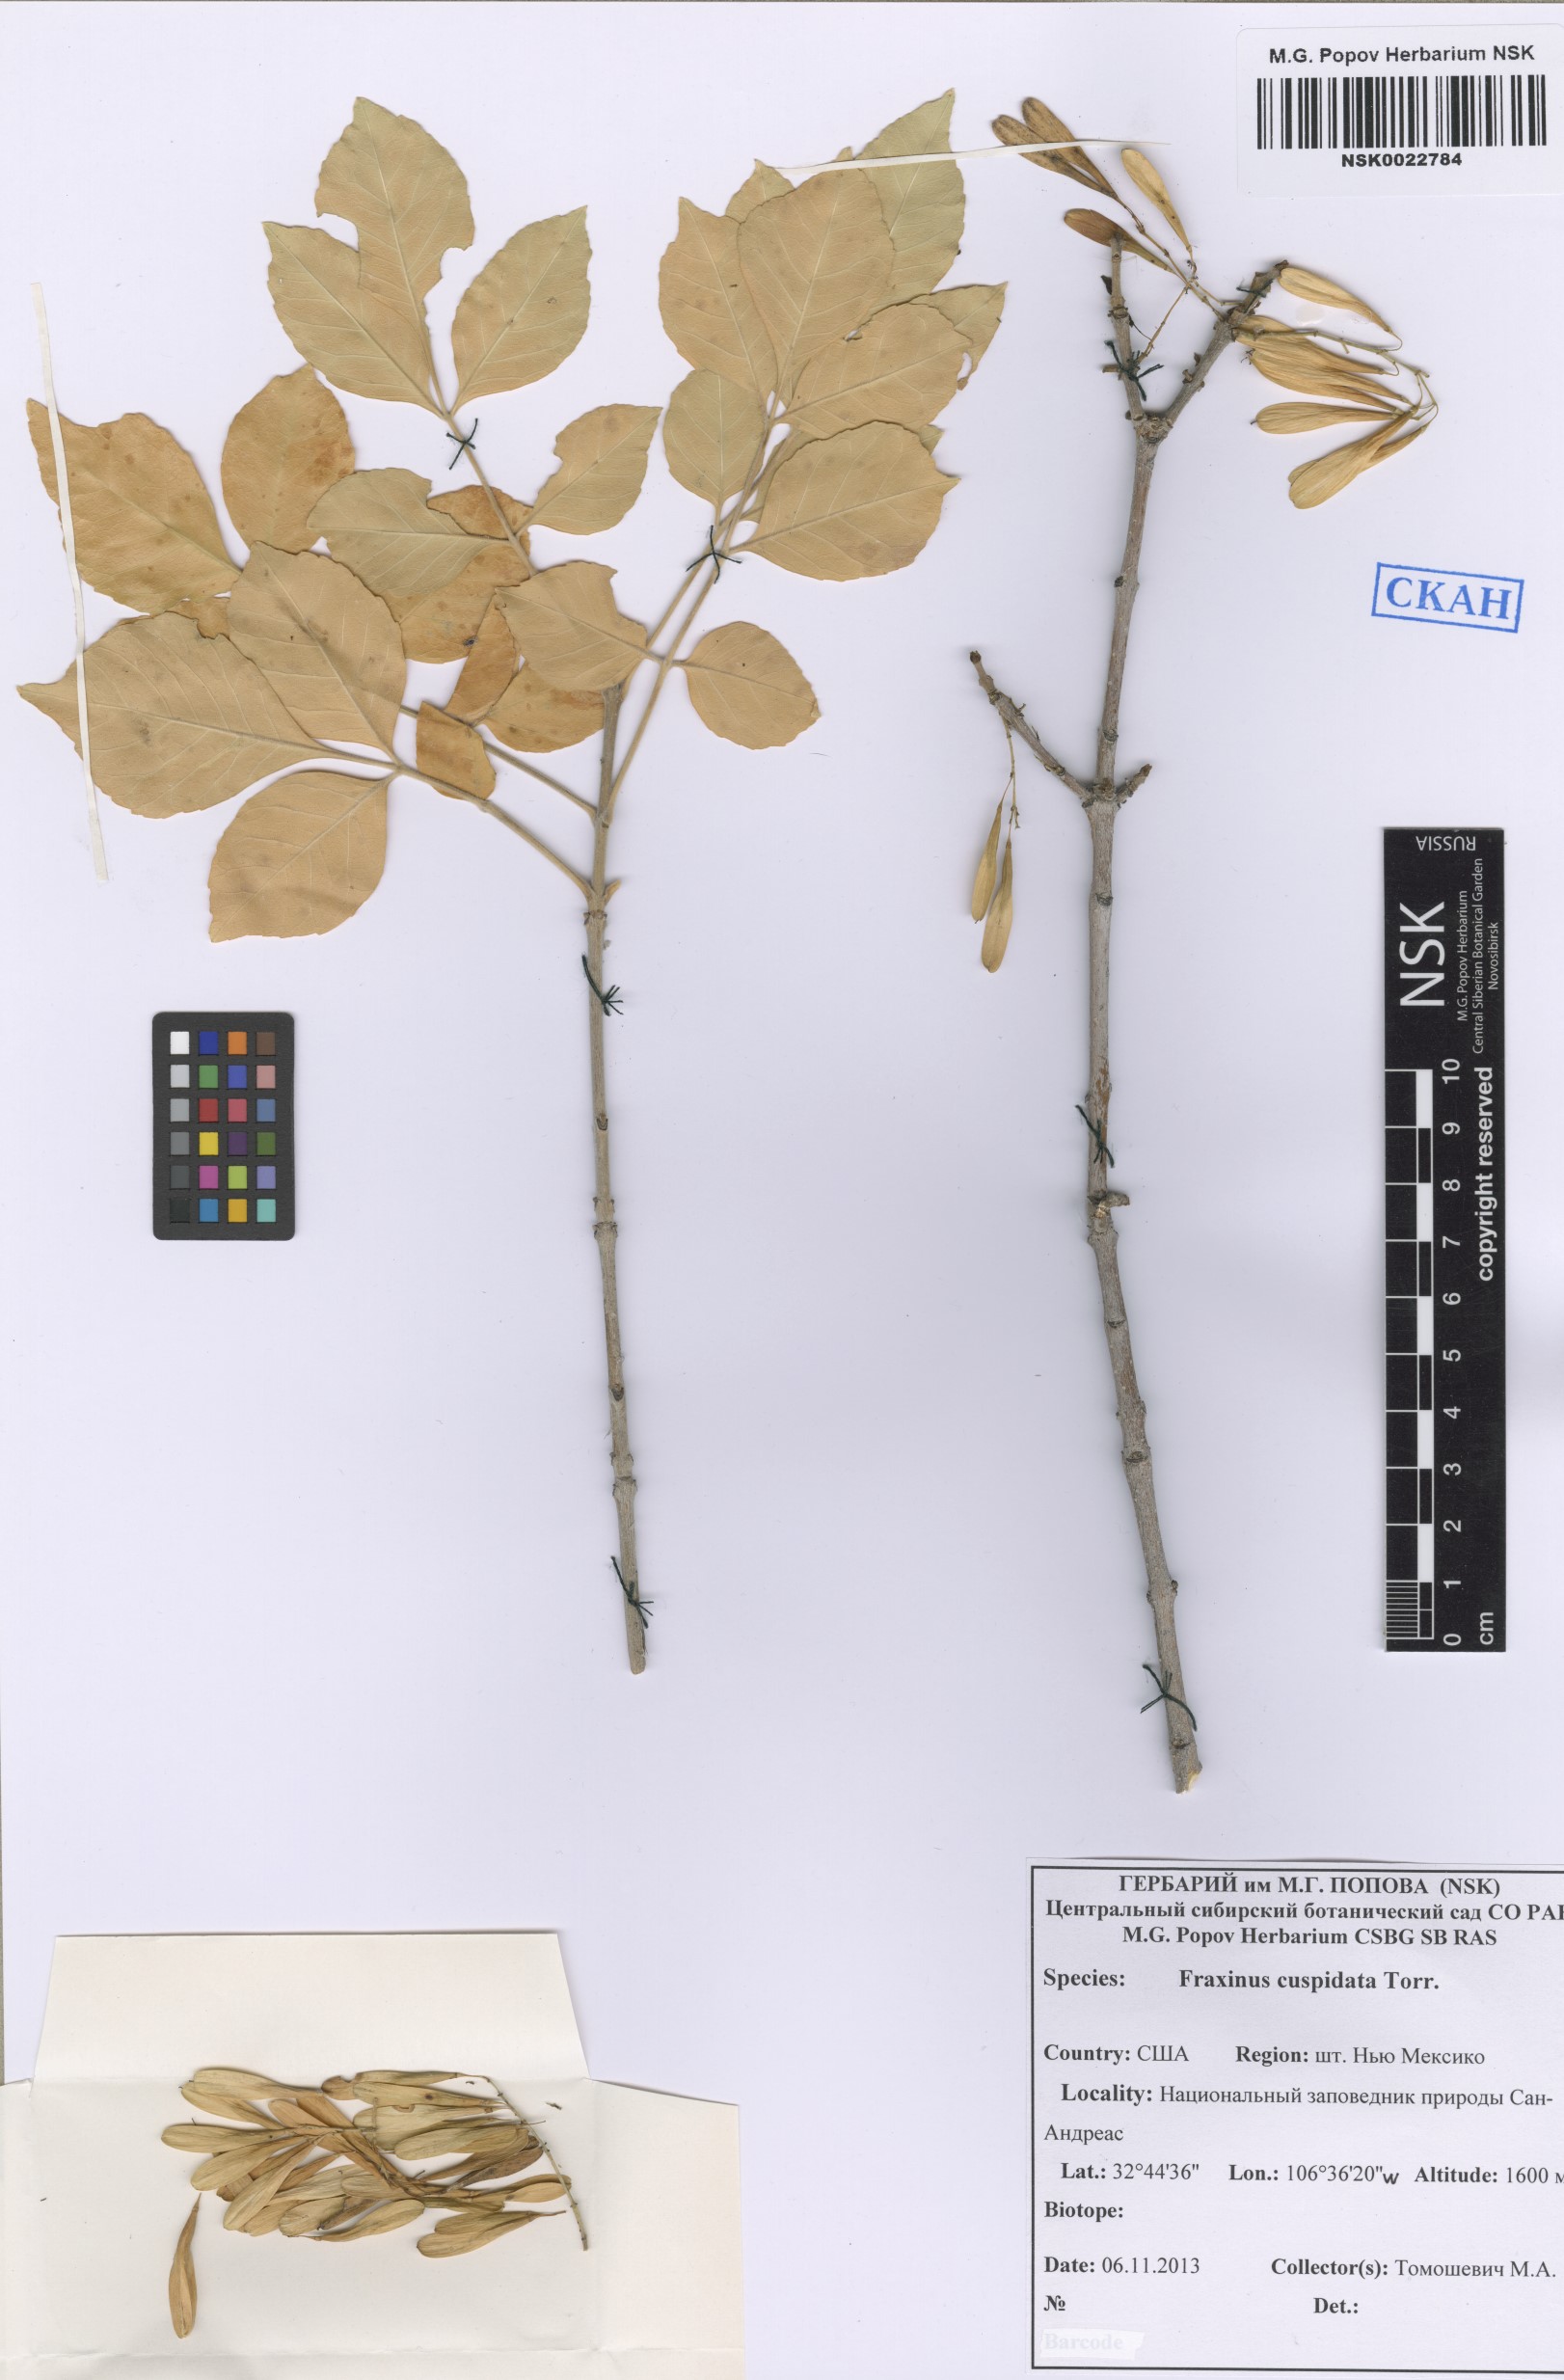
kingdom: Plantae
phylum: Tracheophyta
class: Magnoliopsida
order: Lamiales
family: Oleaceae
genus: Fraxinus
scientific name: Fraxinus cuspidata
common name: Fragrant ash
